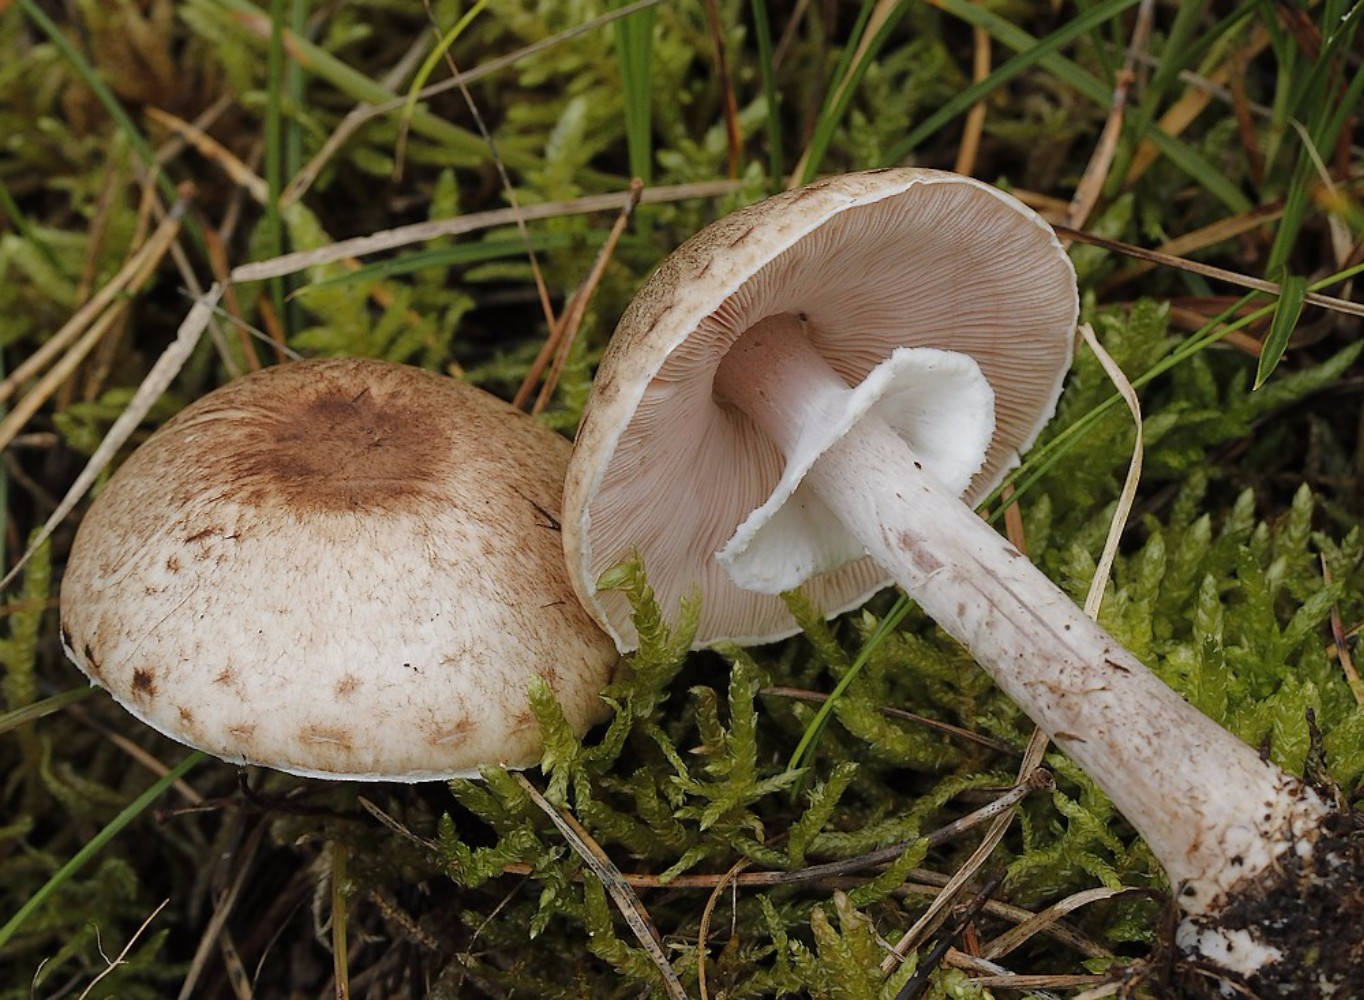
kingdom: Fungi
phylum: Basidiomycota
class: Agaricomycetes
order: Agaricales
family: Agaricaceae
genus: Agaricus
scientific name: Agaricus
